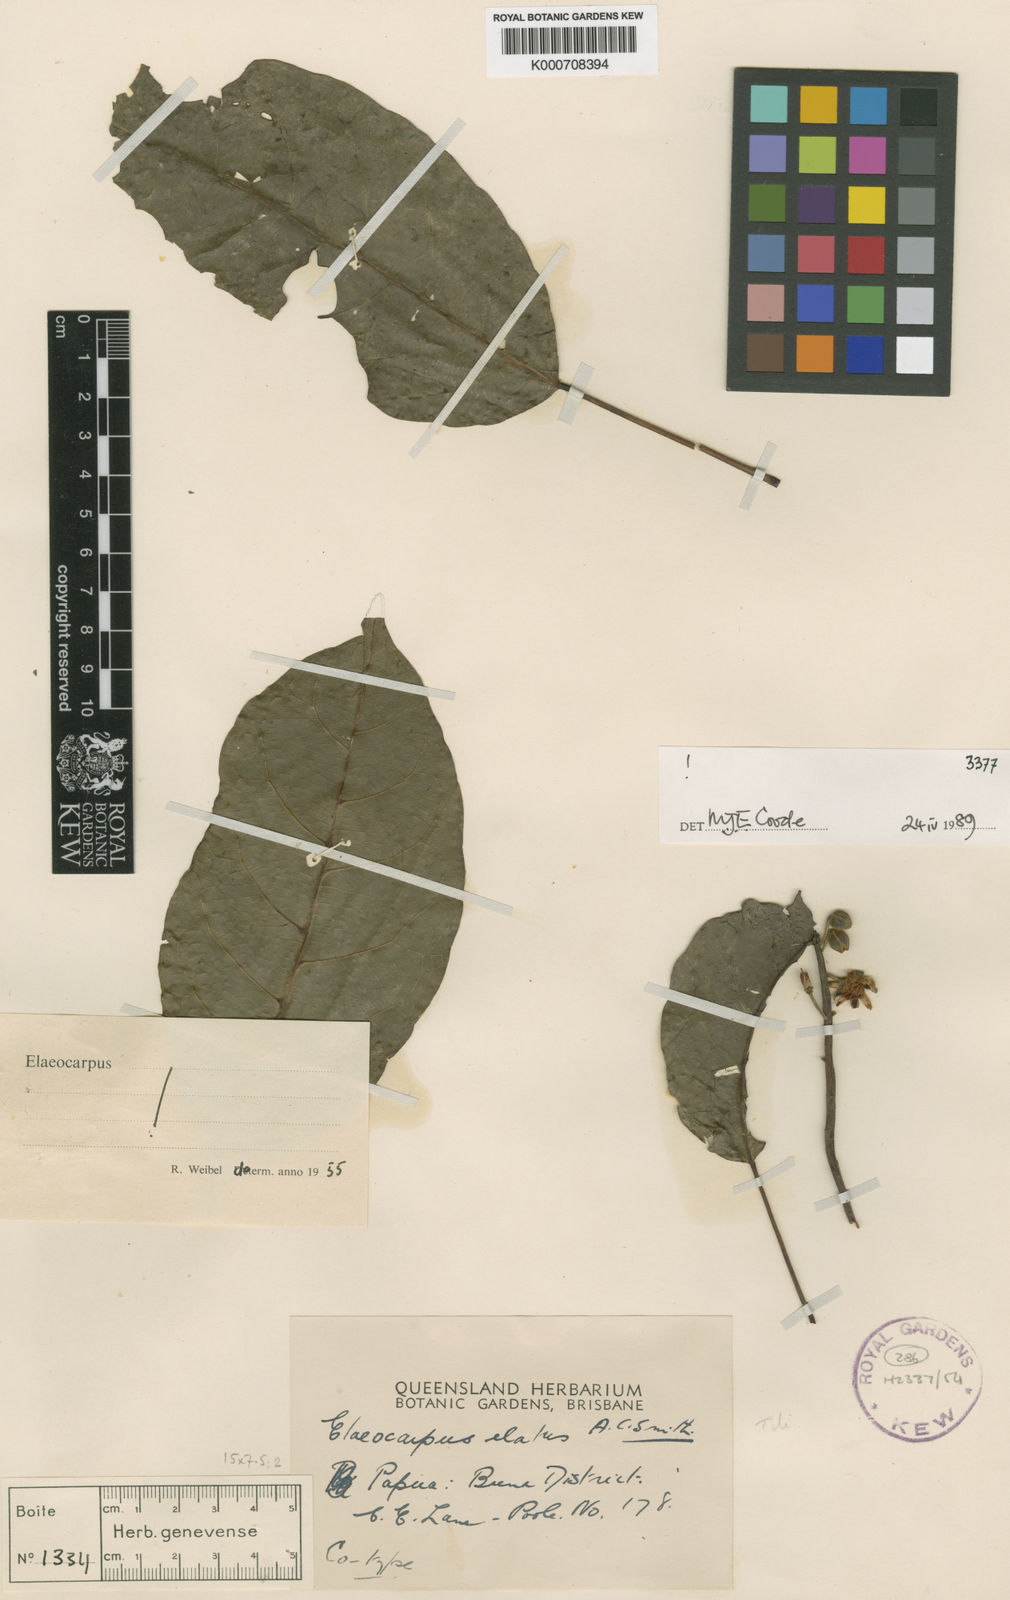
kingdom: Plantae
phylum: Tracheophyta
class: Magnoliopsida
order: Oxalidales
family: Elaeocarpaceae
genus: Elaeocarpus
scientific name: Elaeocarpus elatus
